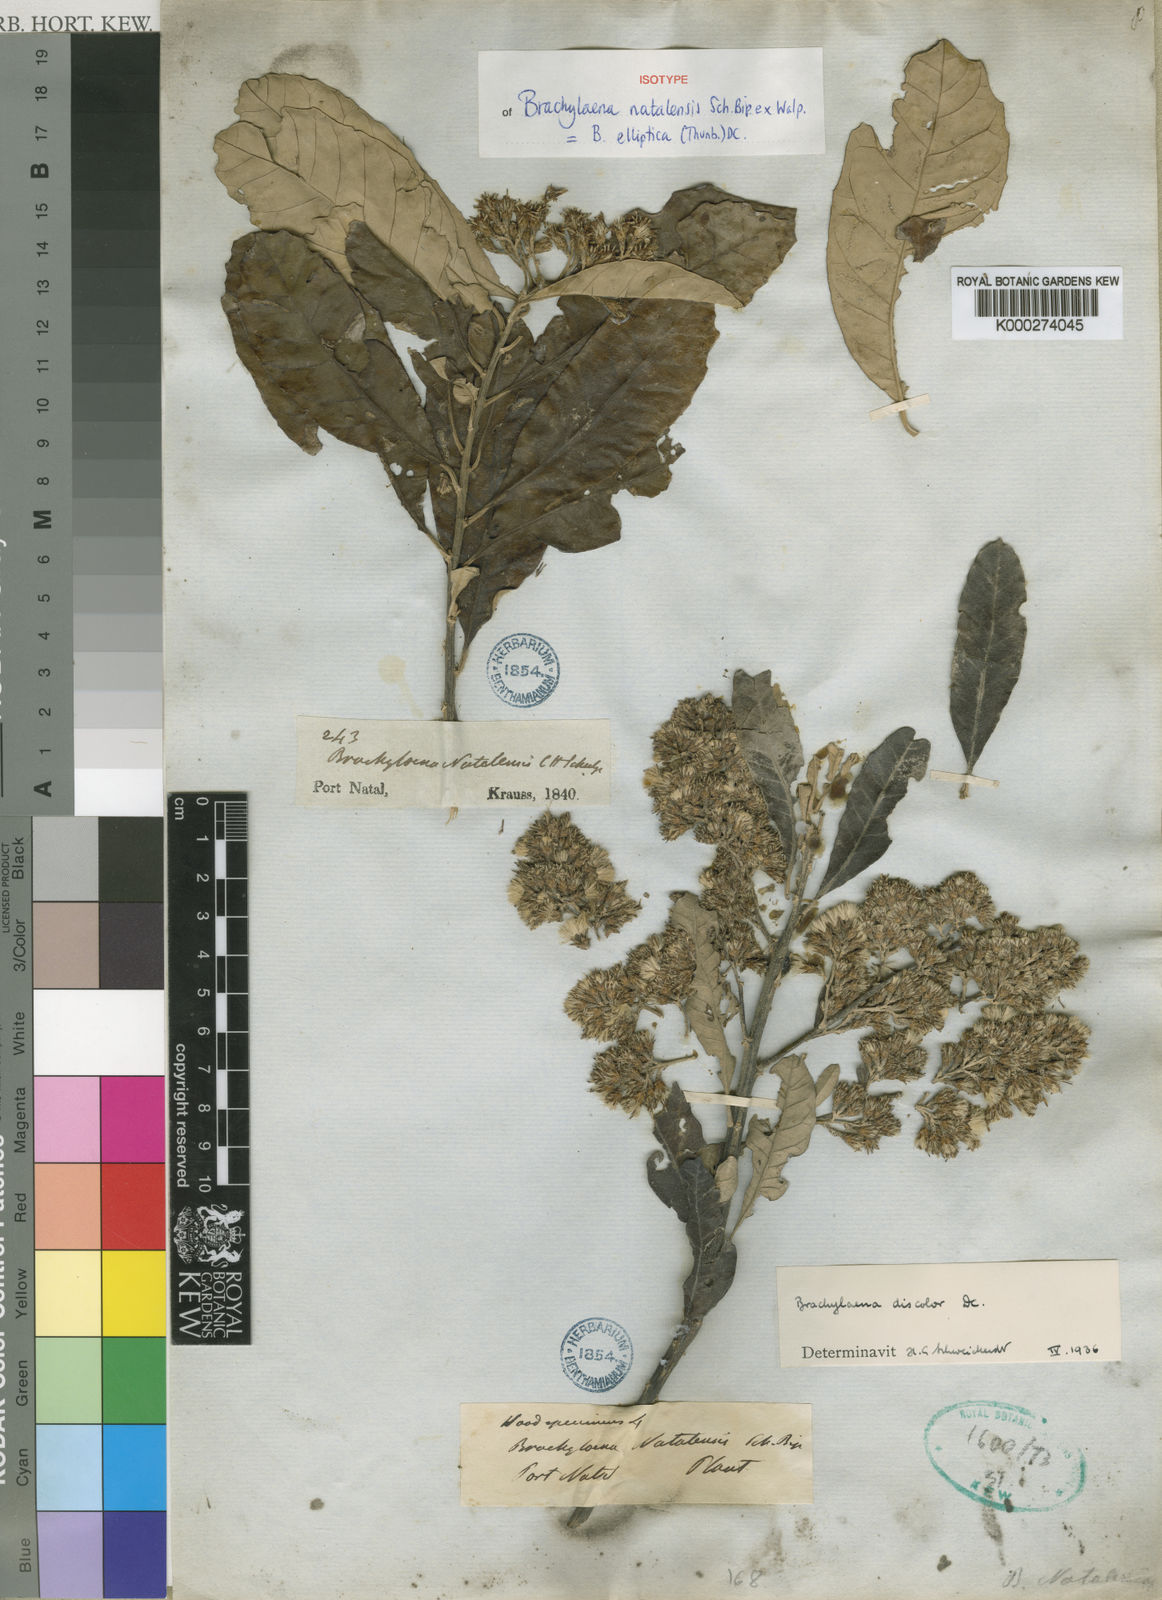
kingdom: Plantae
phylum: Tracheophyta
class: Magnoliopsida
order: Asterales
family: Asteraceae
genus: Brachylaena
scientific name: Brachylaena elliptica
